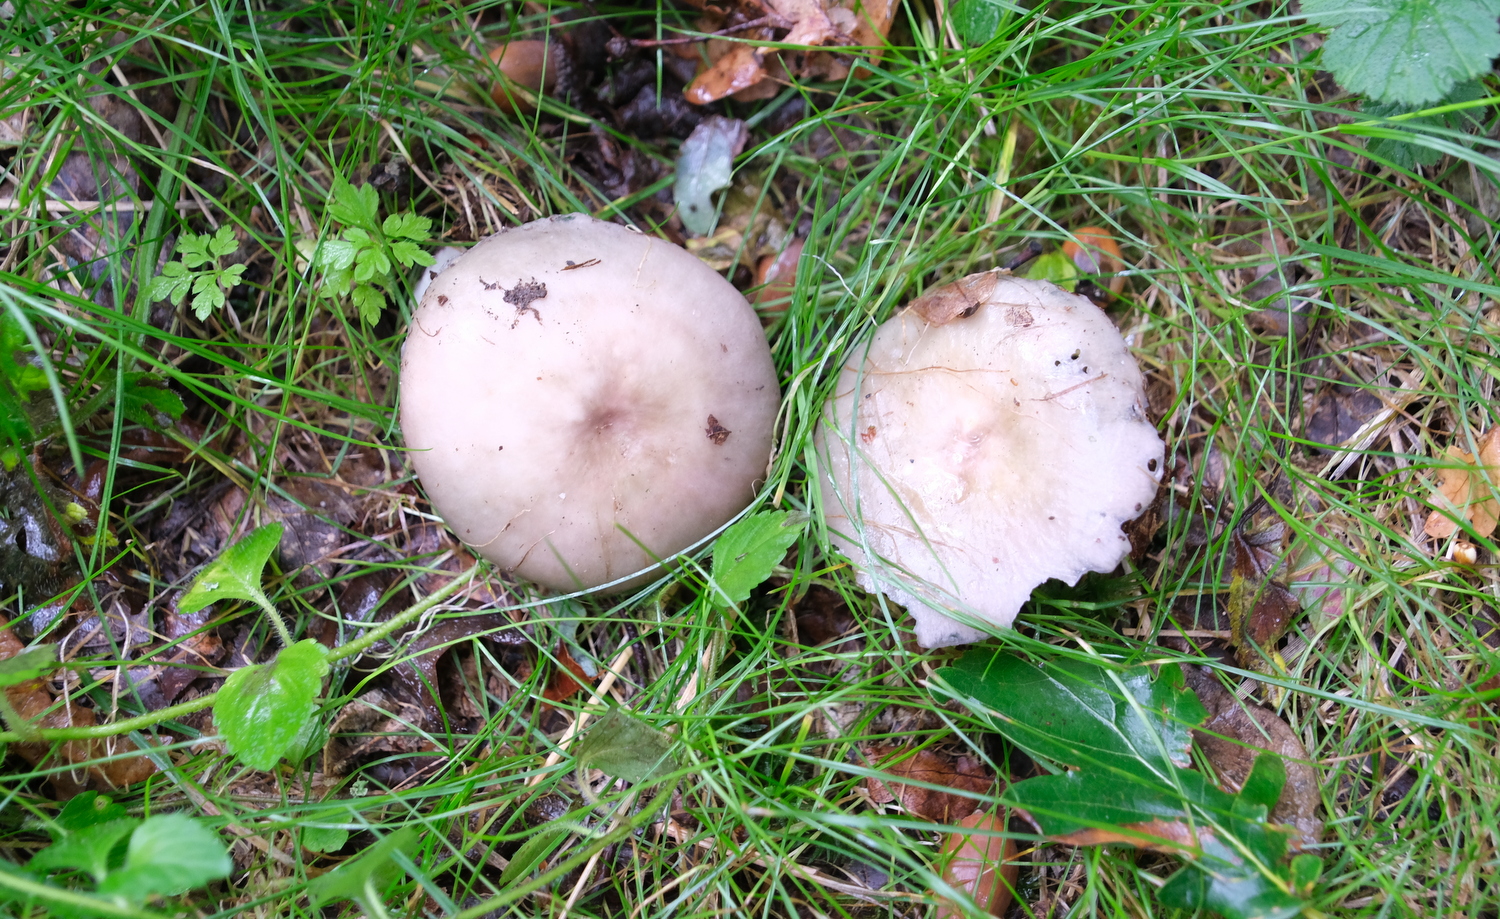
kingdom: Fungi
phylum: Basidiomycota
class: Agaricomycetes
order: Russulales
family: Russulaceae
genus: Russula
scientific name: Russula
